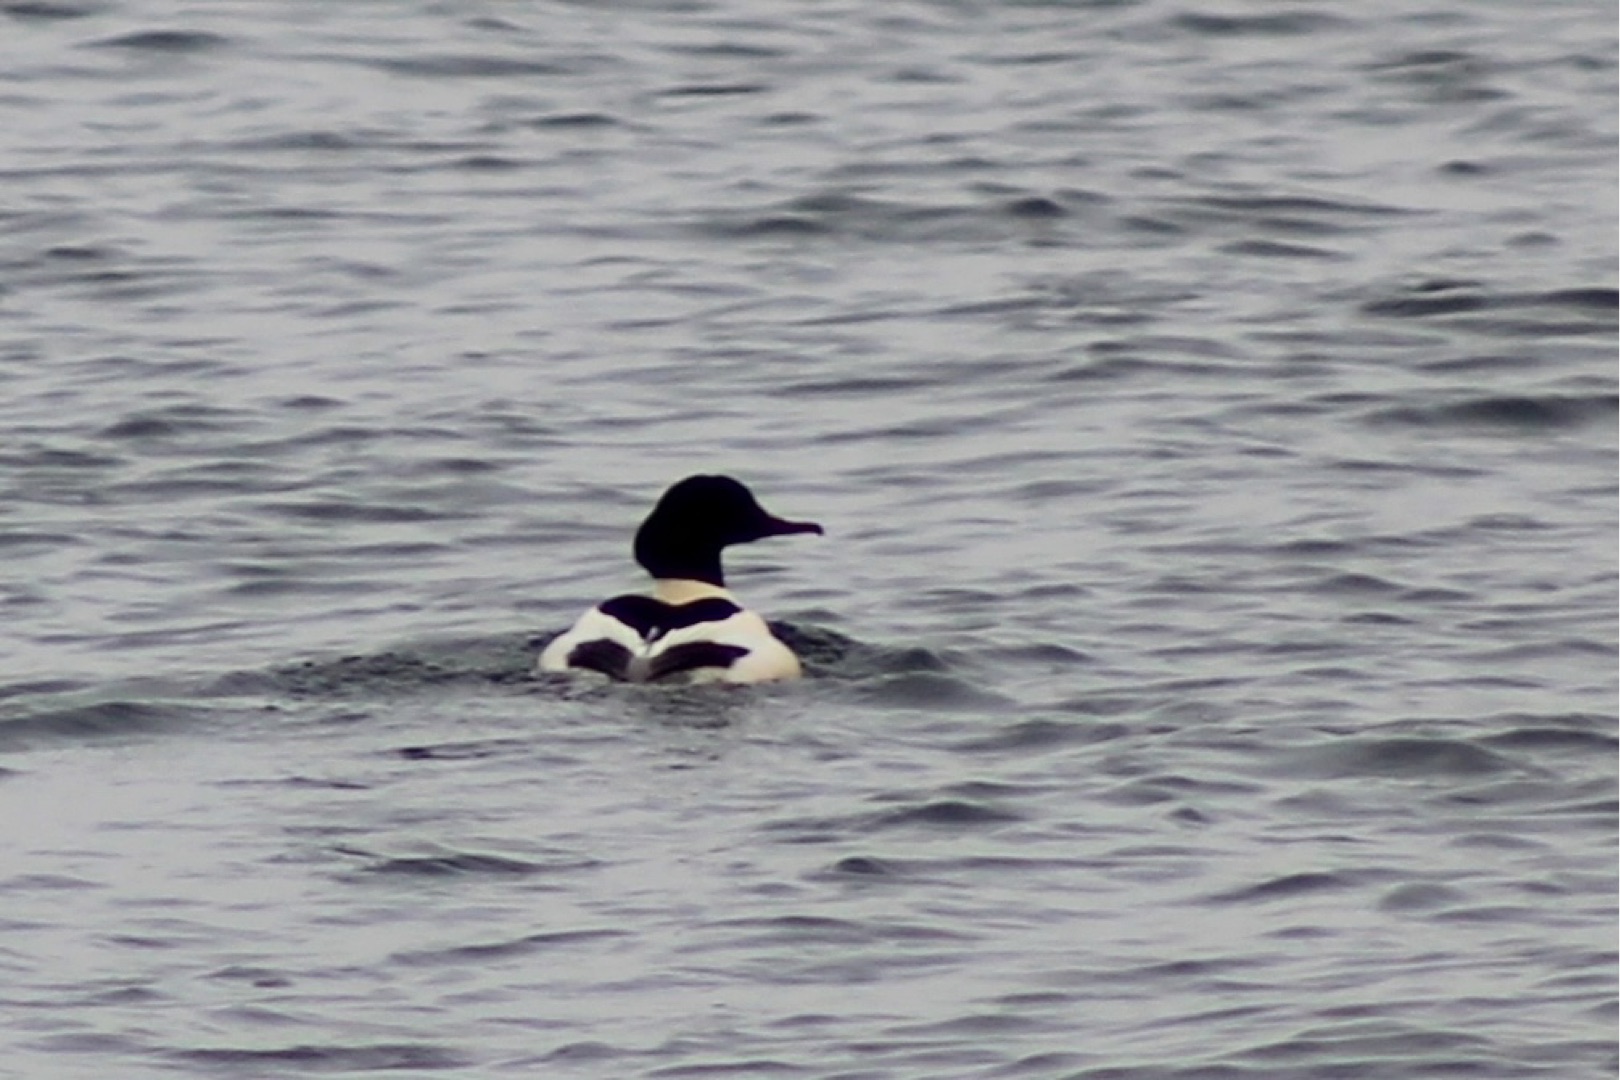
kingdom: Animalia
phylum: Chordata
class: Aves
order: Anseriformes
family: Anatidae
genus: Mergus
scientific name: Mergus merganser
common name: Stor skallesluger
